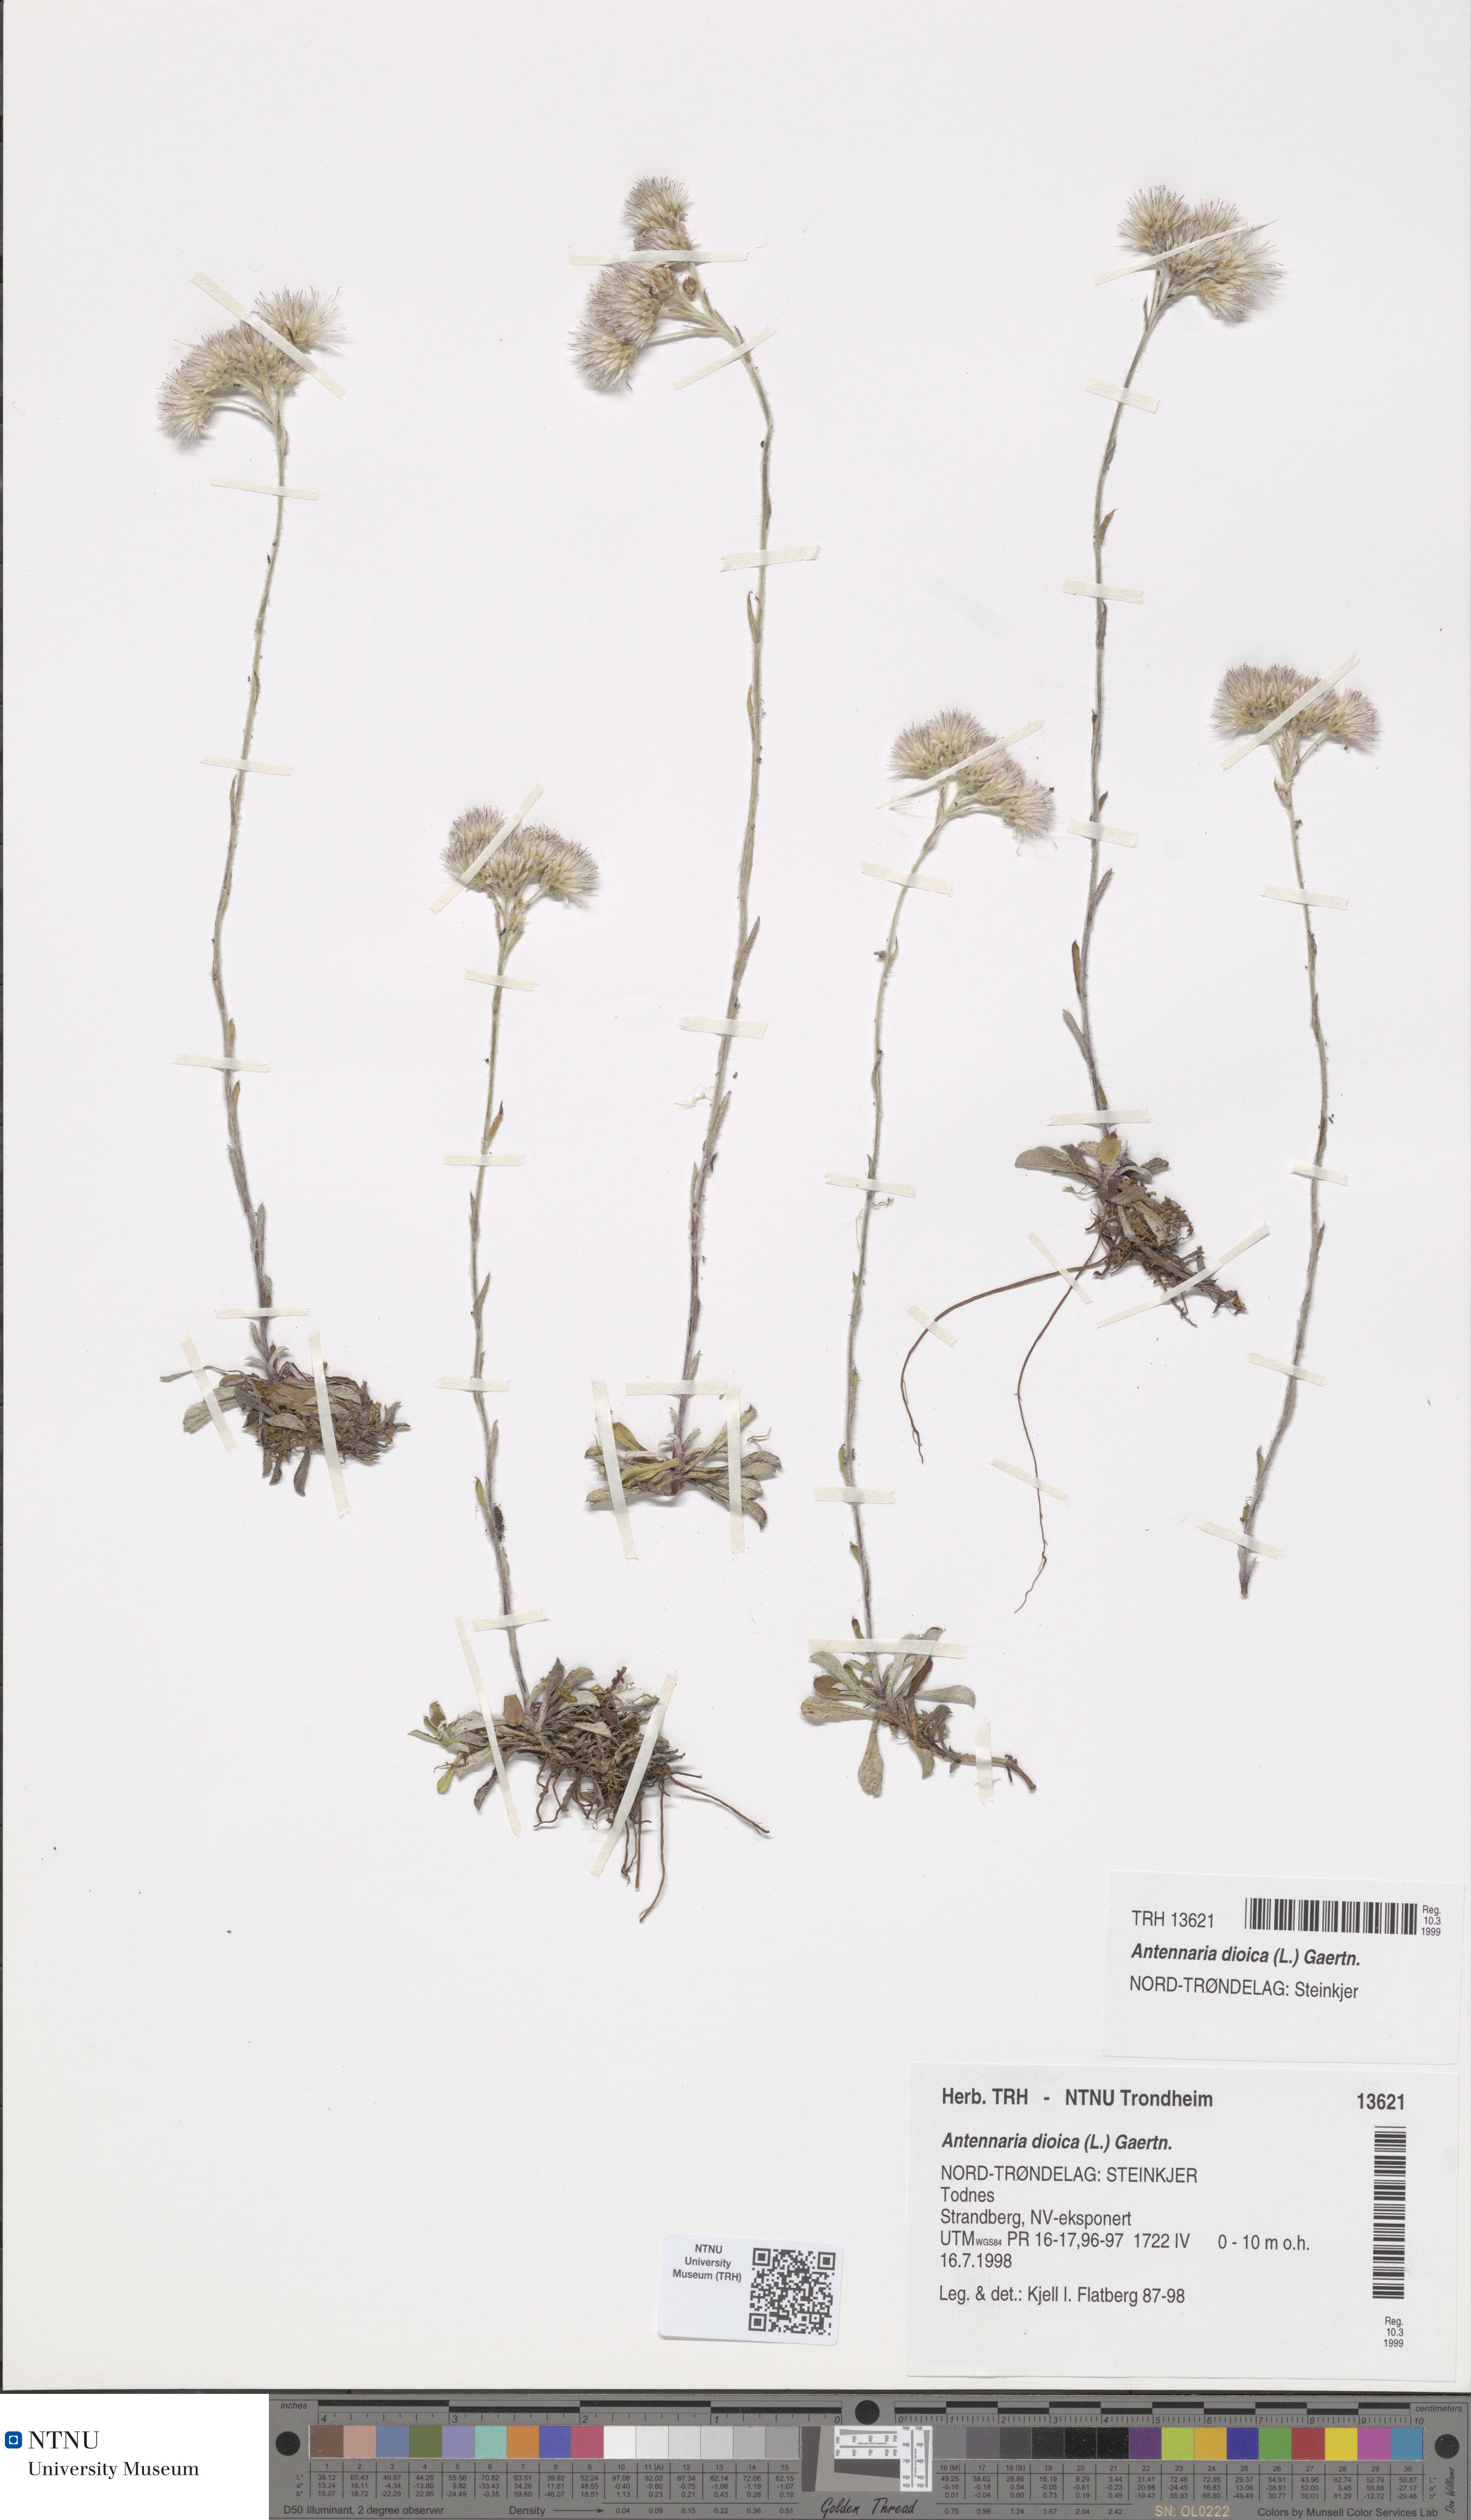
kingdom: Plantae
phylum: Tracheophyta
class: Magnoliopsida
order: Asterales
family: Asteraceae
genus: Antennaria
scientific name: Antennaria dioica
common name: Mountain everlasting
